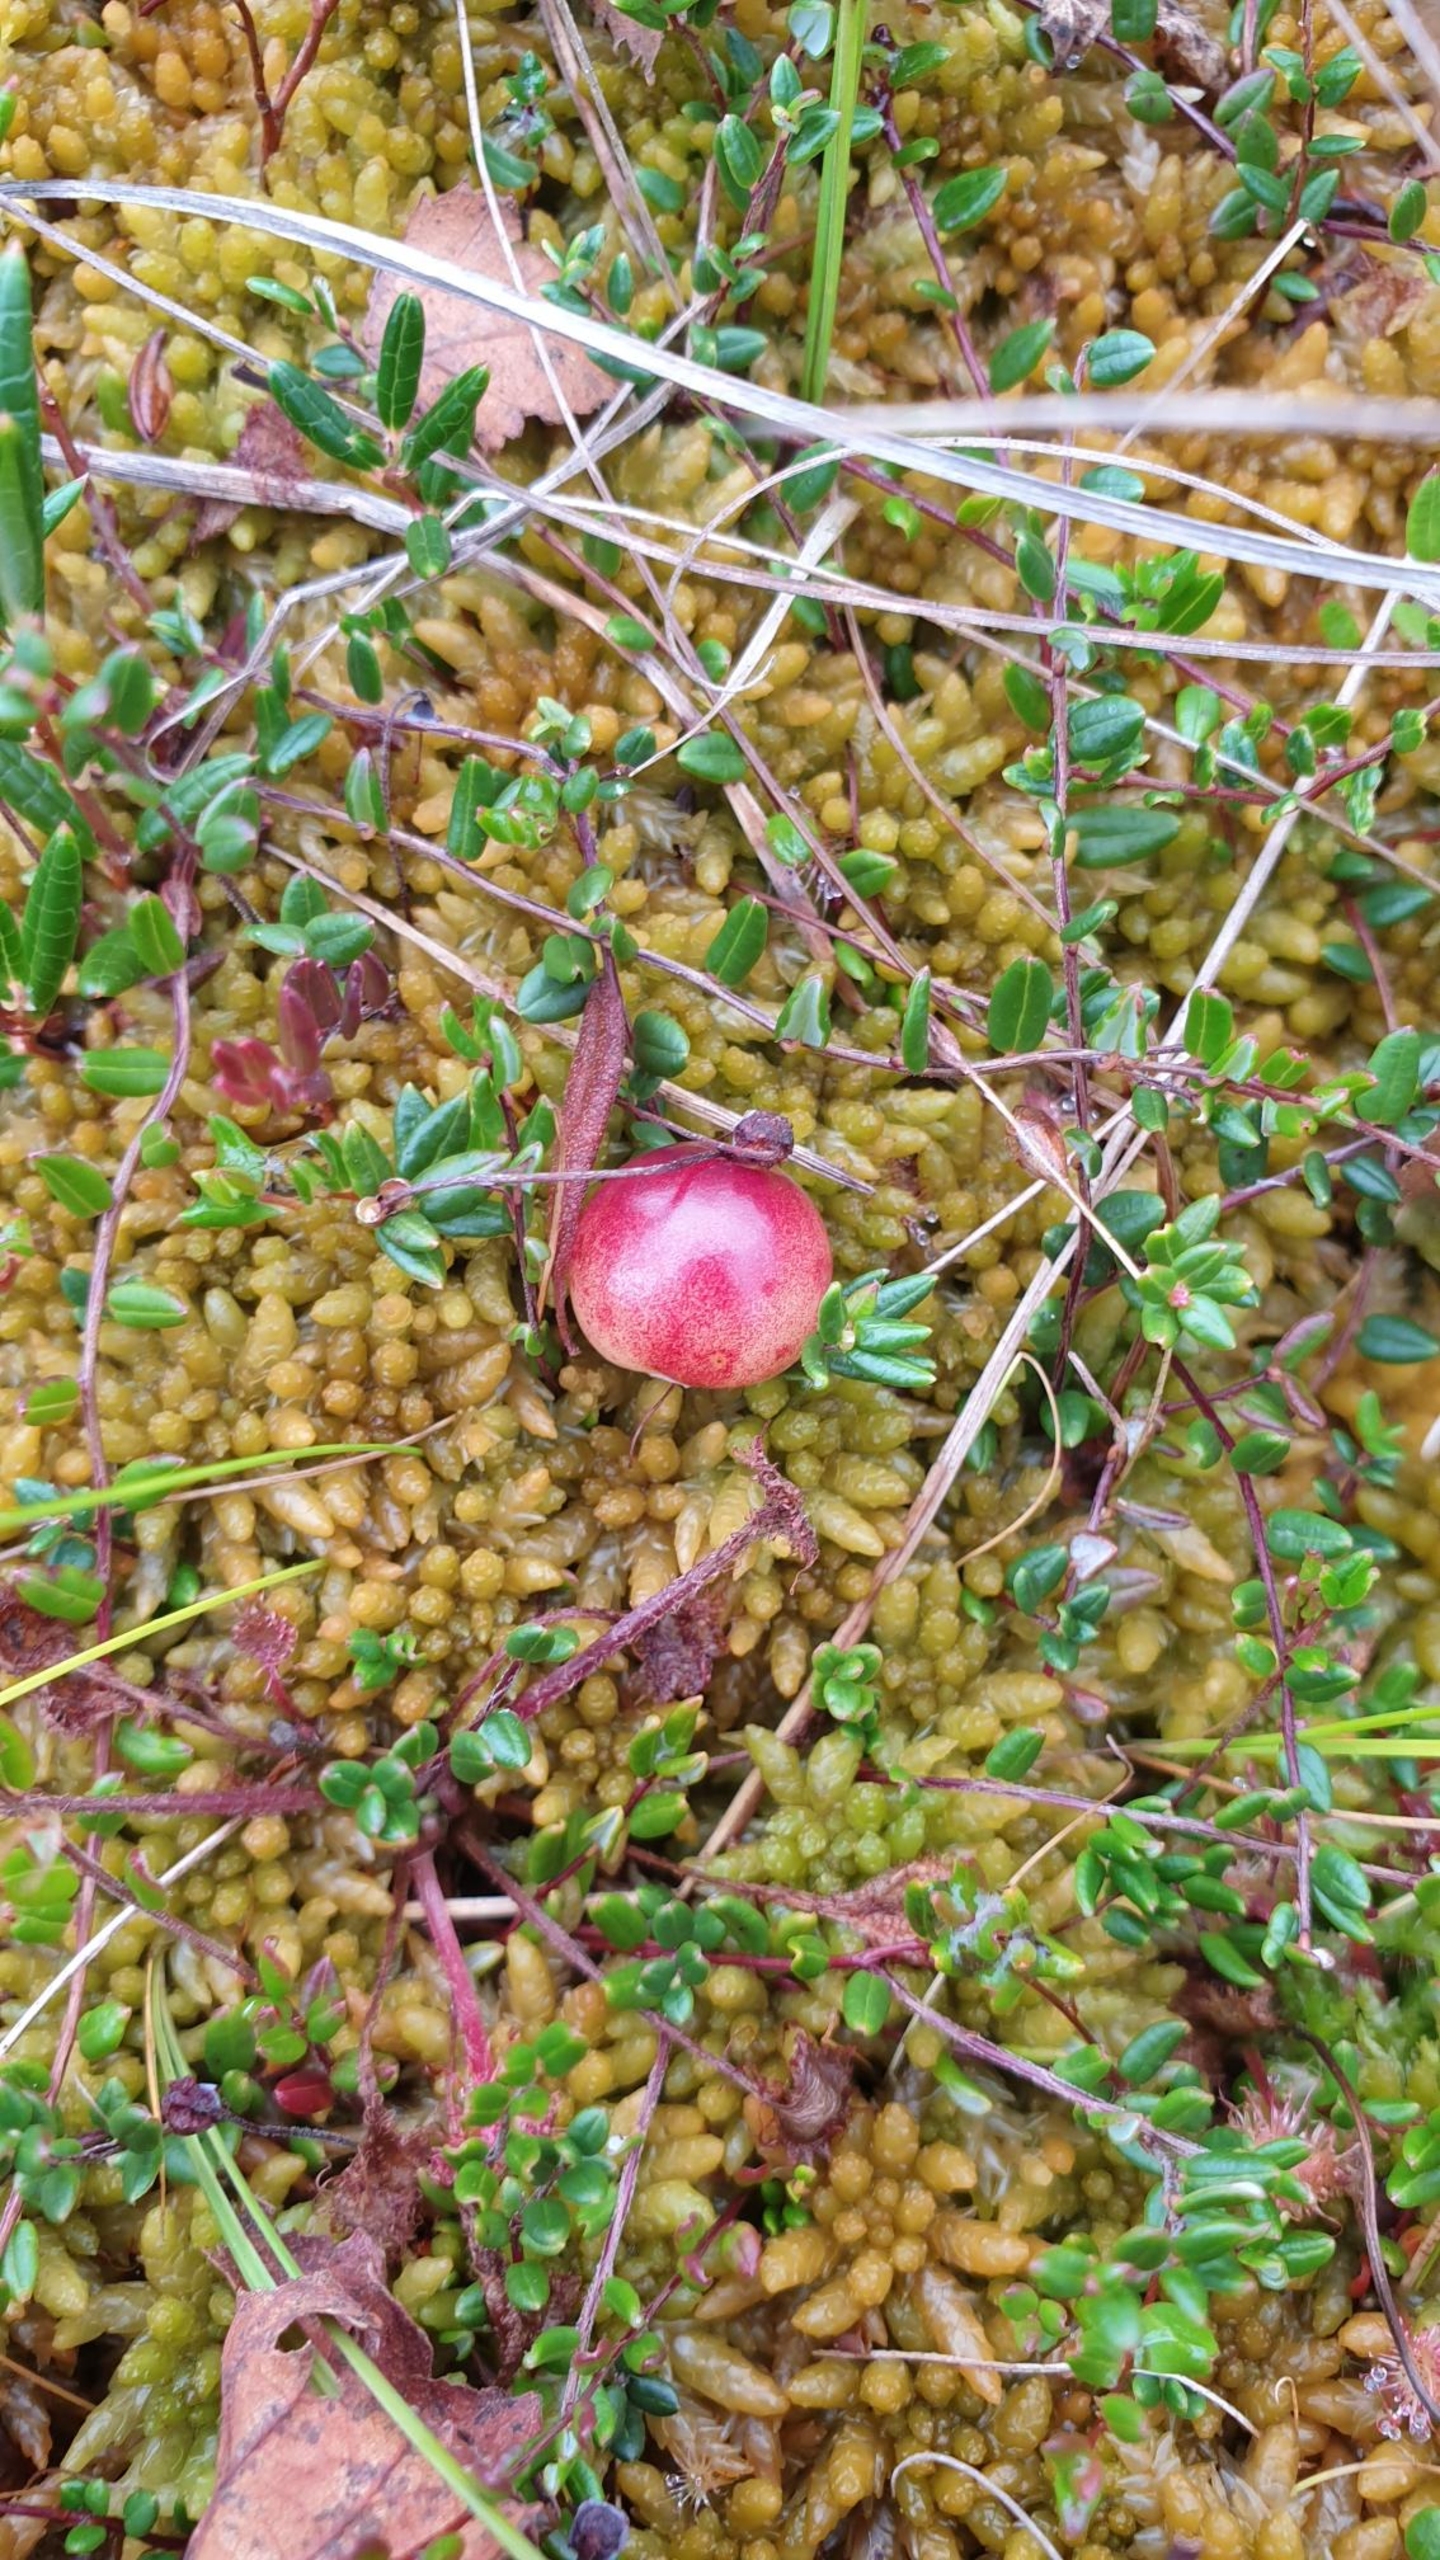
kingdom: Plantae
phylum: Tracheophyta
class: Magnoliopsida
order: Ericales
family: Ericaceae
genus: Vaccinium
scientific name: Vaccinium oxycoccos
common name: Tranebær
